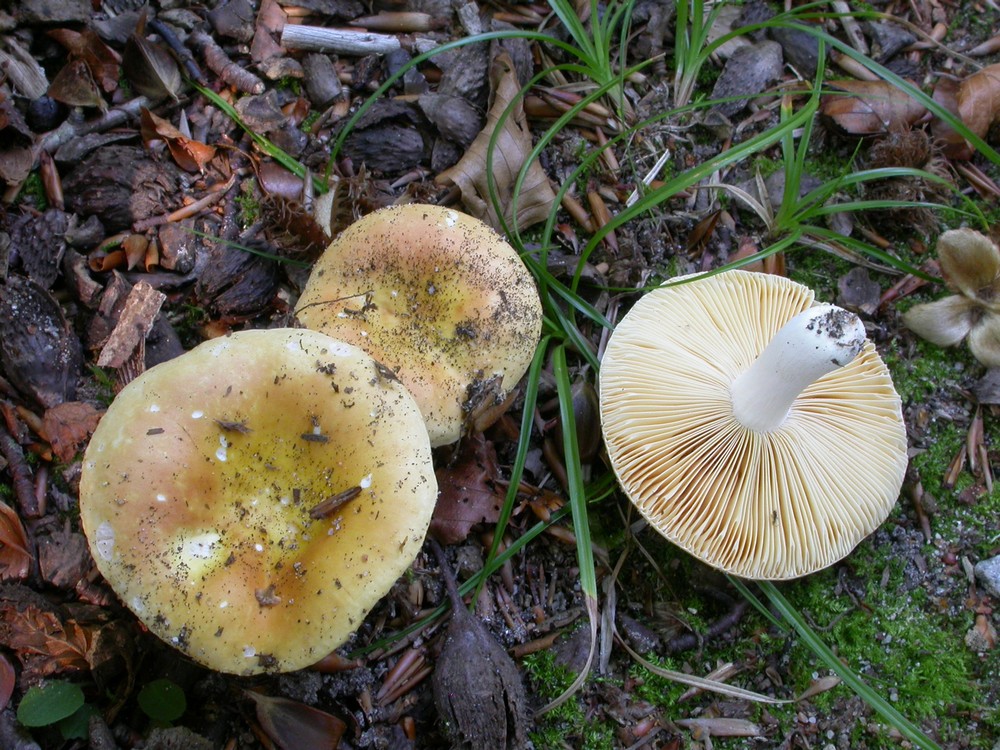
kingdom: Fungi
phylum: Basidiomycota
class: Agaricomycetes
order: Russulales
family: Russulaceae
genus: Russula
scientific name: Russula risigallina
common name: abrikos-skørhat
